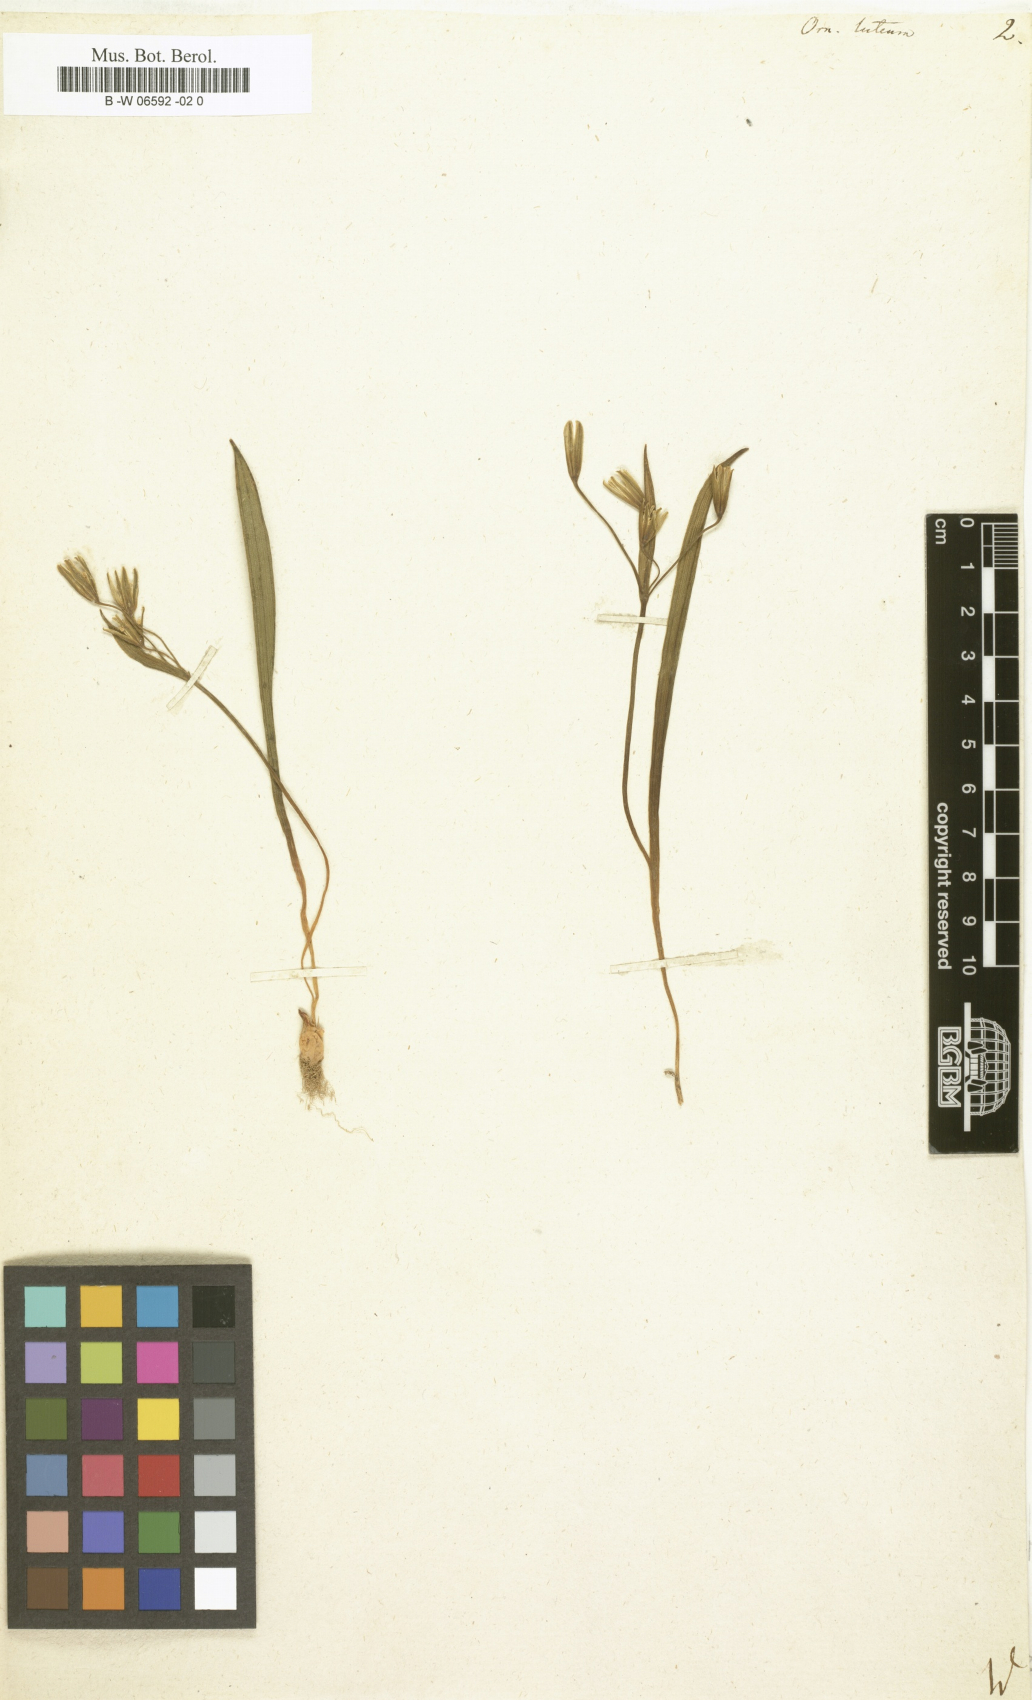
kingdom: Plantae
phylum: Tracheophyta
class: Liliopsida
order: Liliales
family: Liliaceae
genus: Gagea
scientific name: Gagea lutea
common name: Yellow star-of-bethlehem
